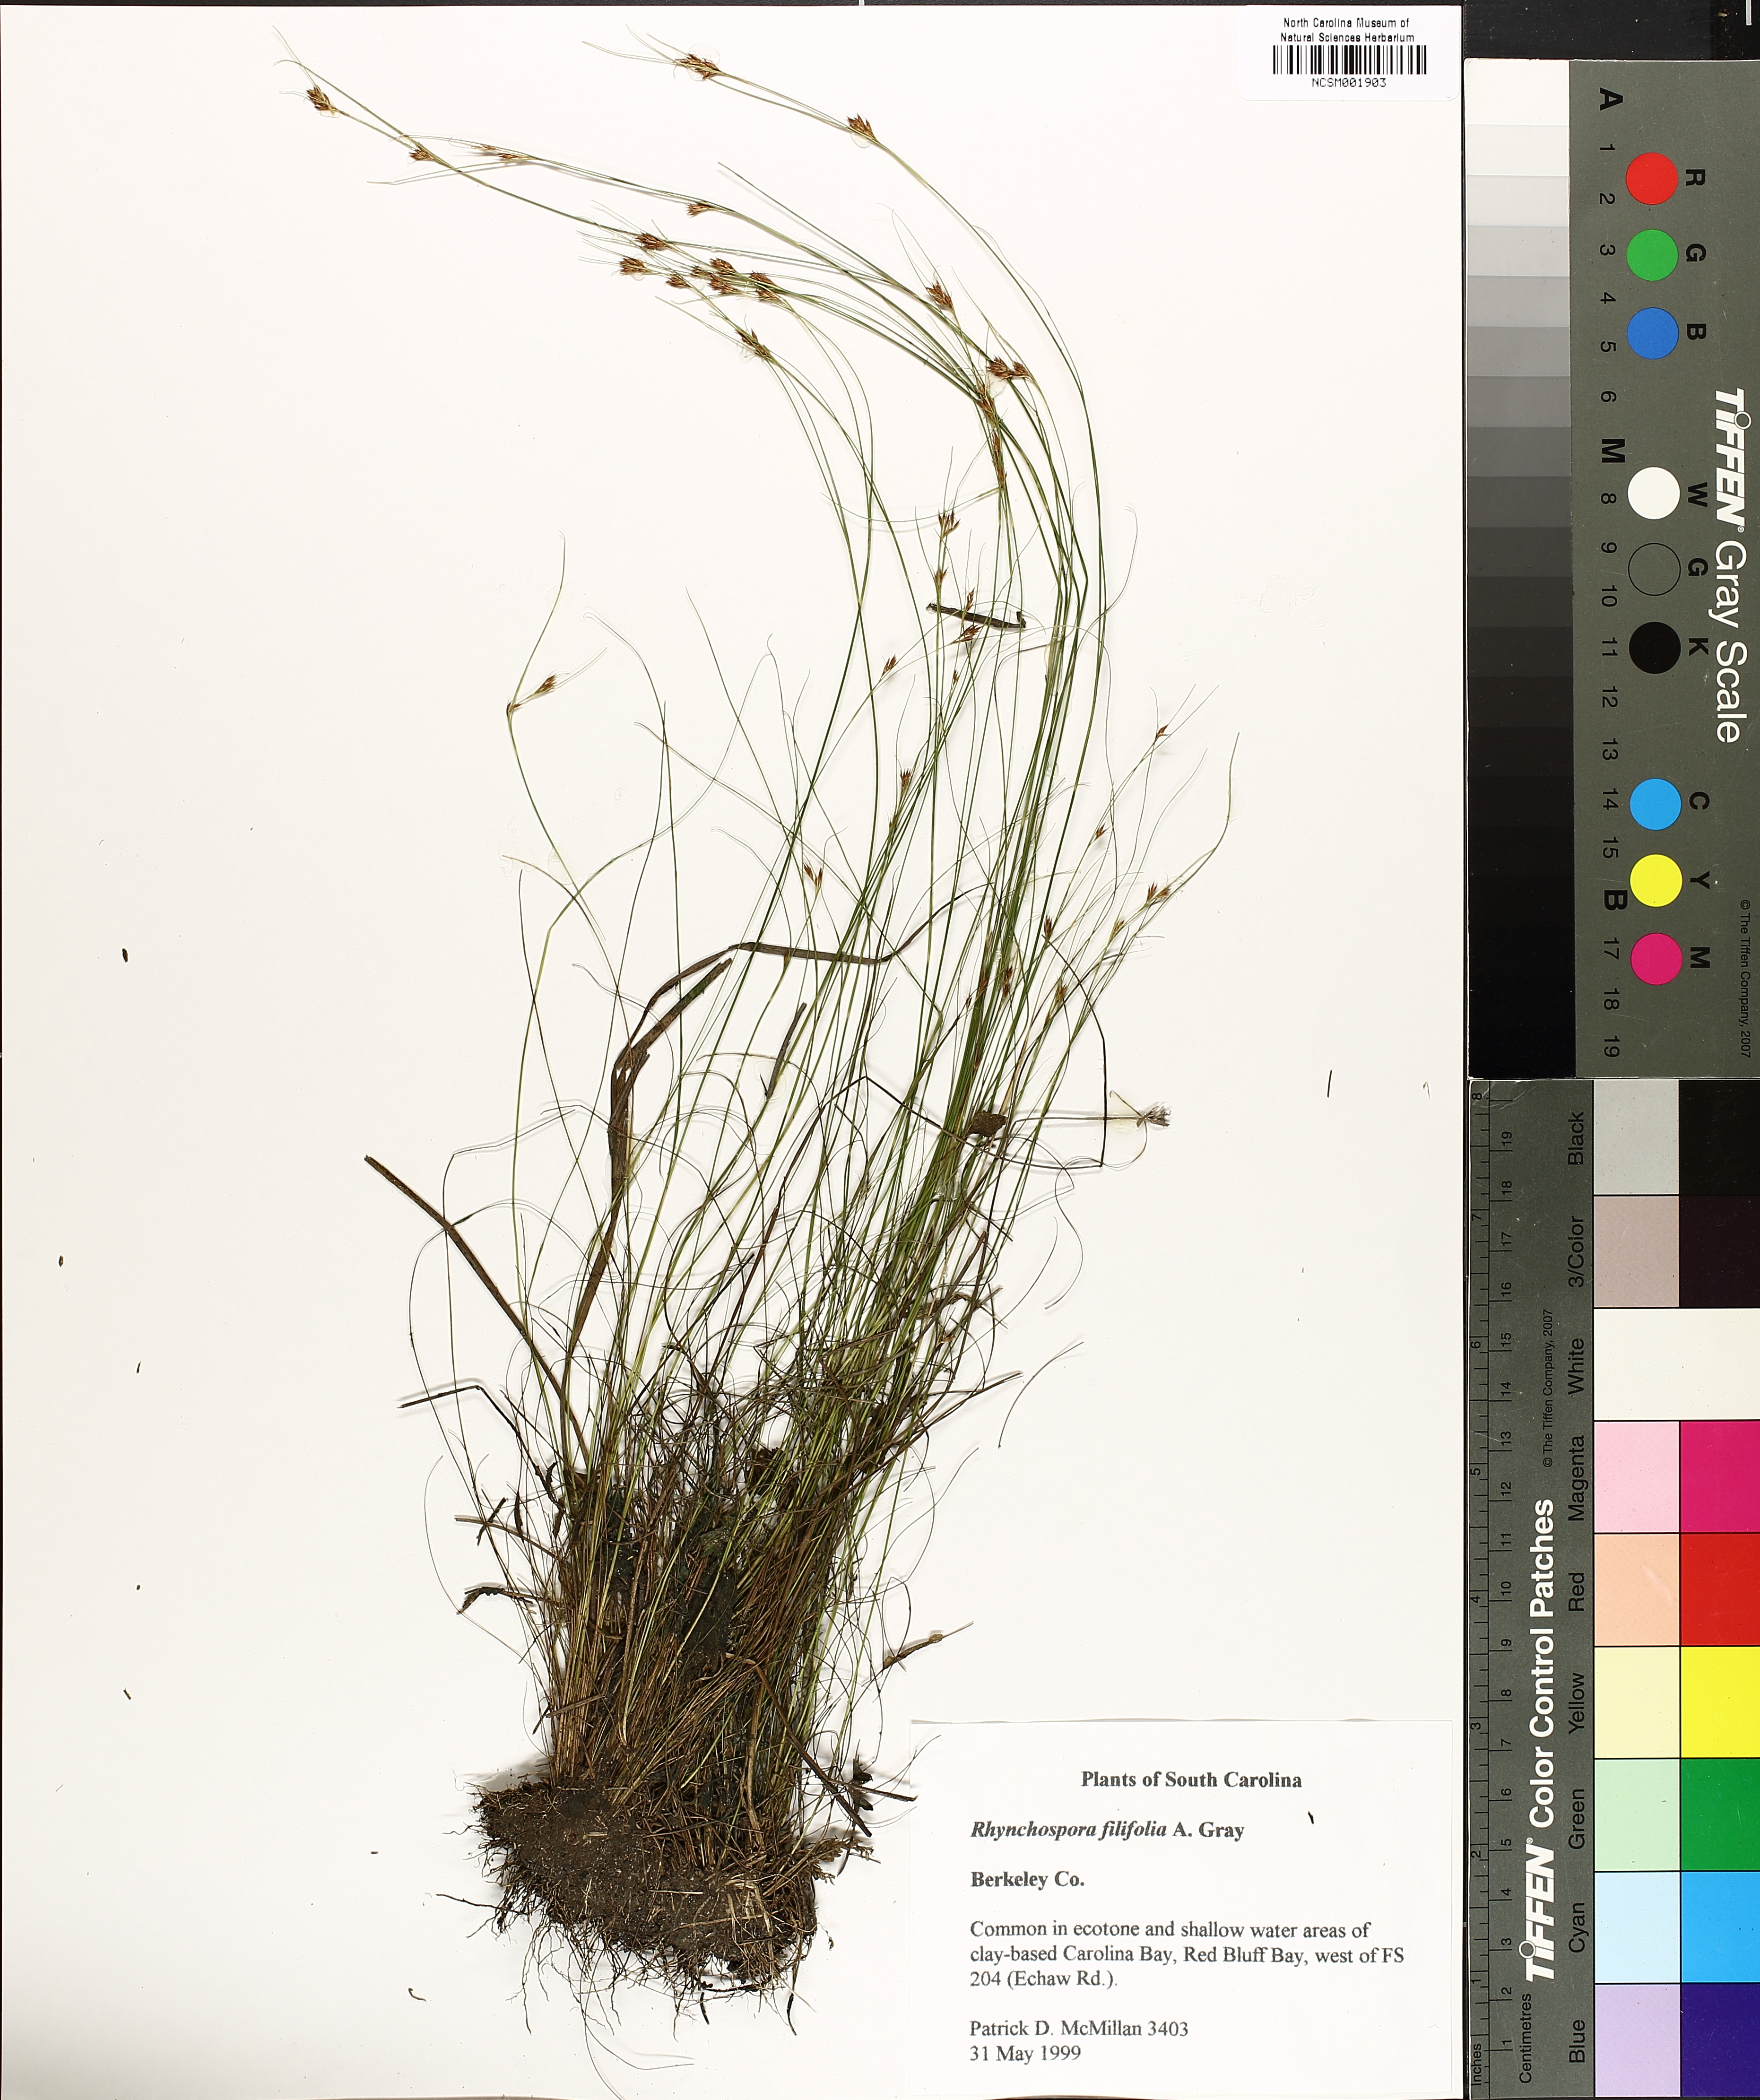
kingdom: Plantae
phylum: Tracheophyta
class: Liliopsida
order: Poales
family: Cyperaceae
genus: Rhynchospora
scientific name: Rhynchospora filifolia
